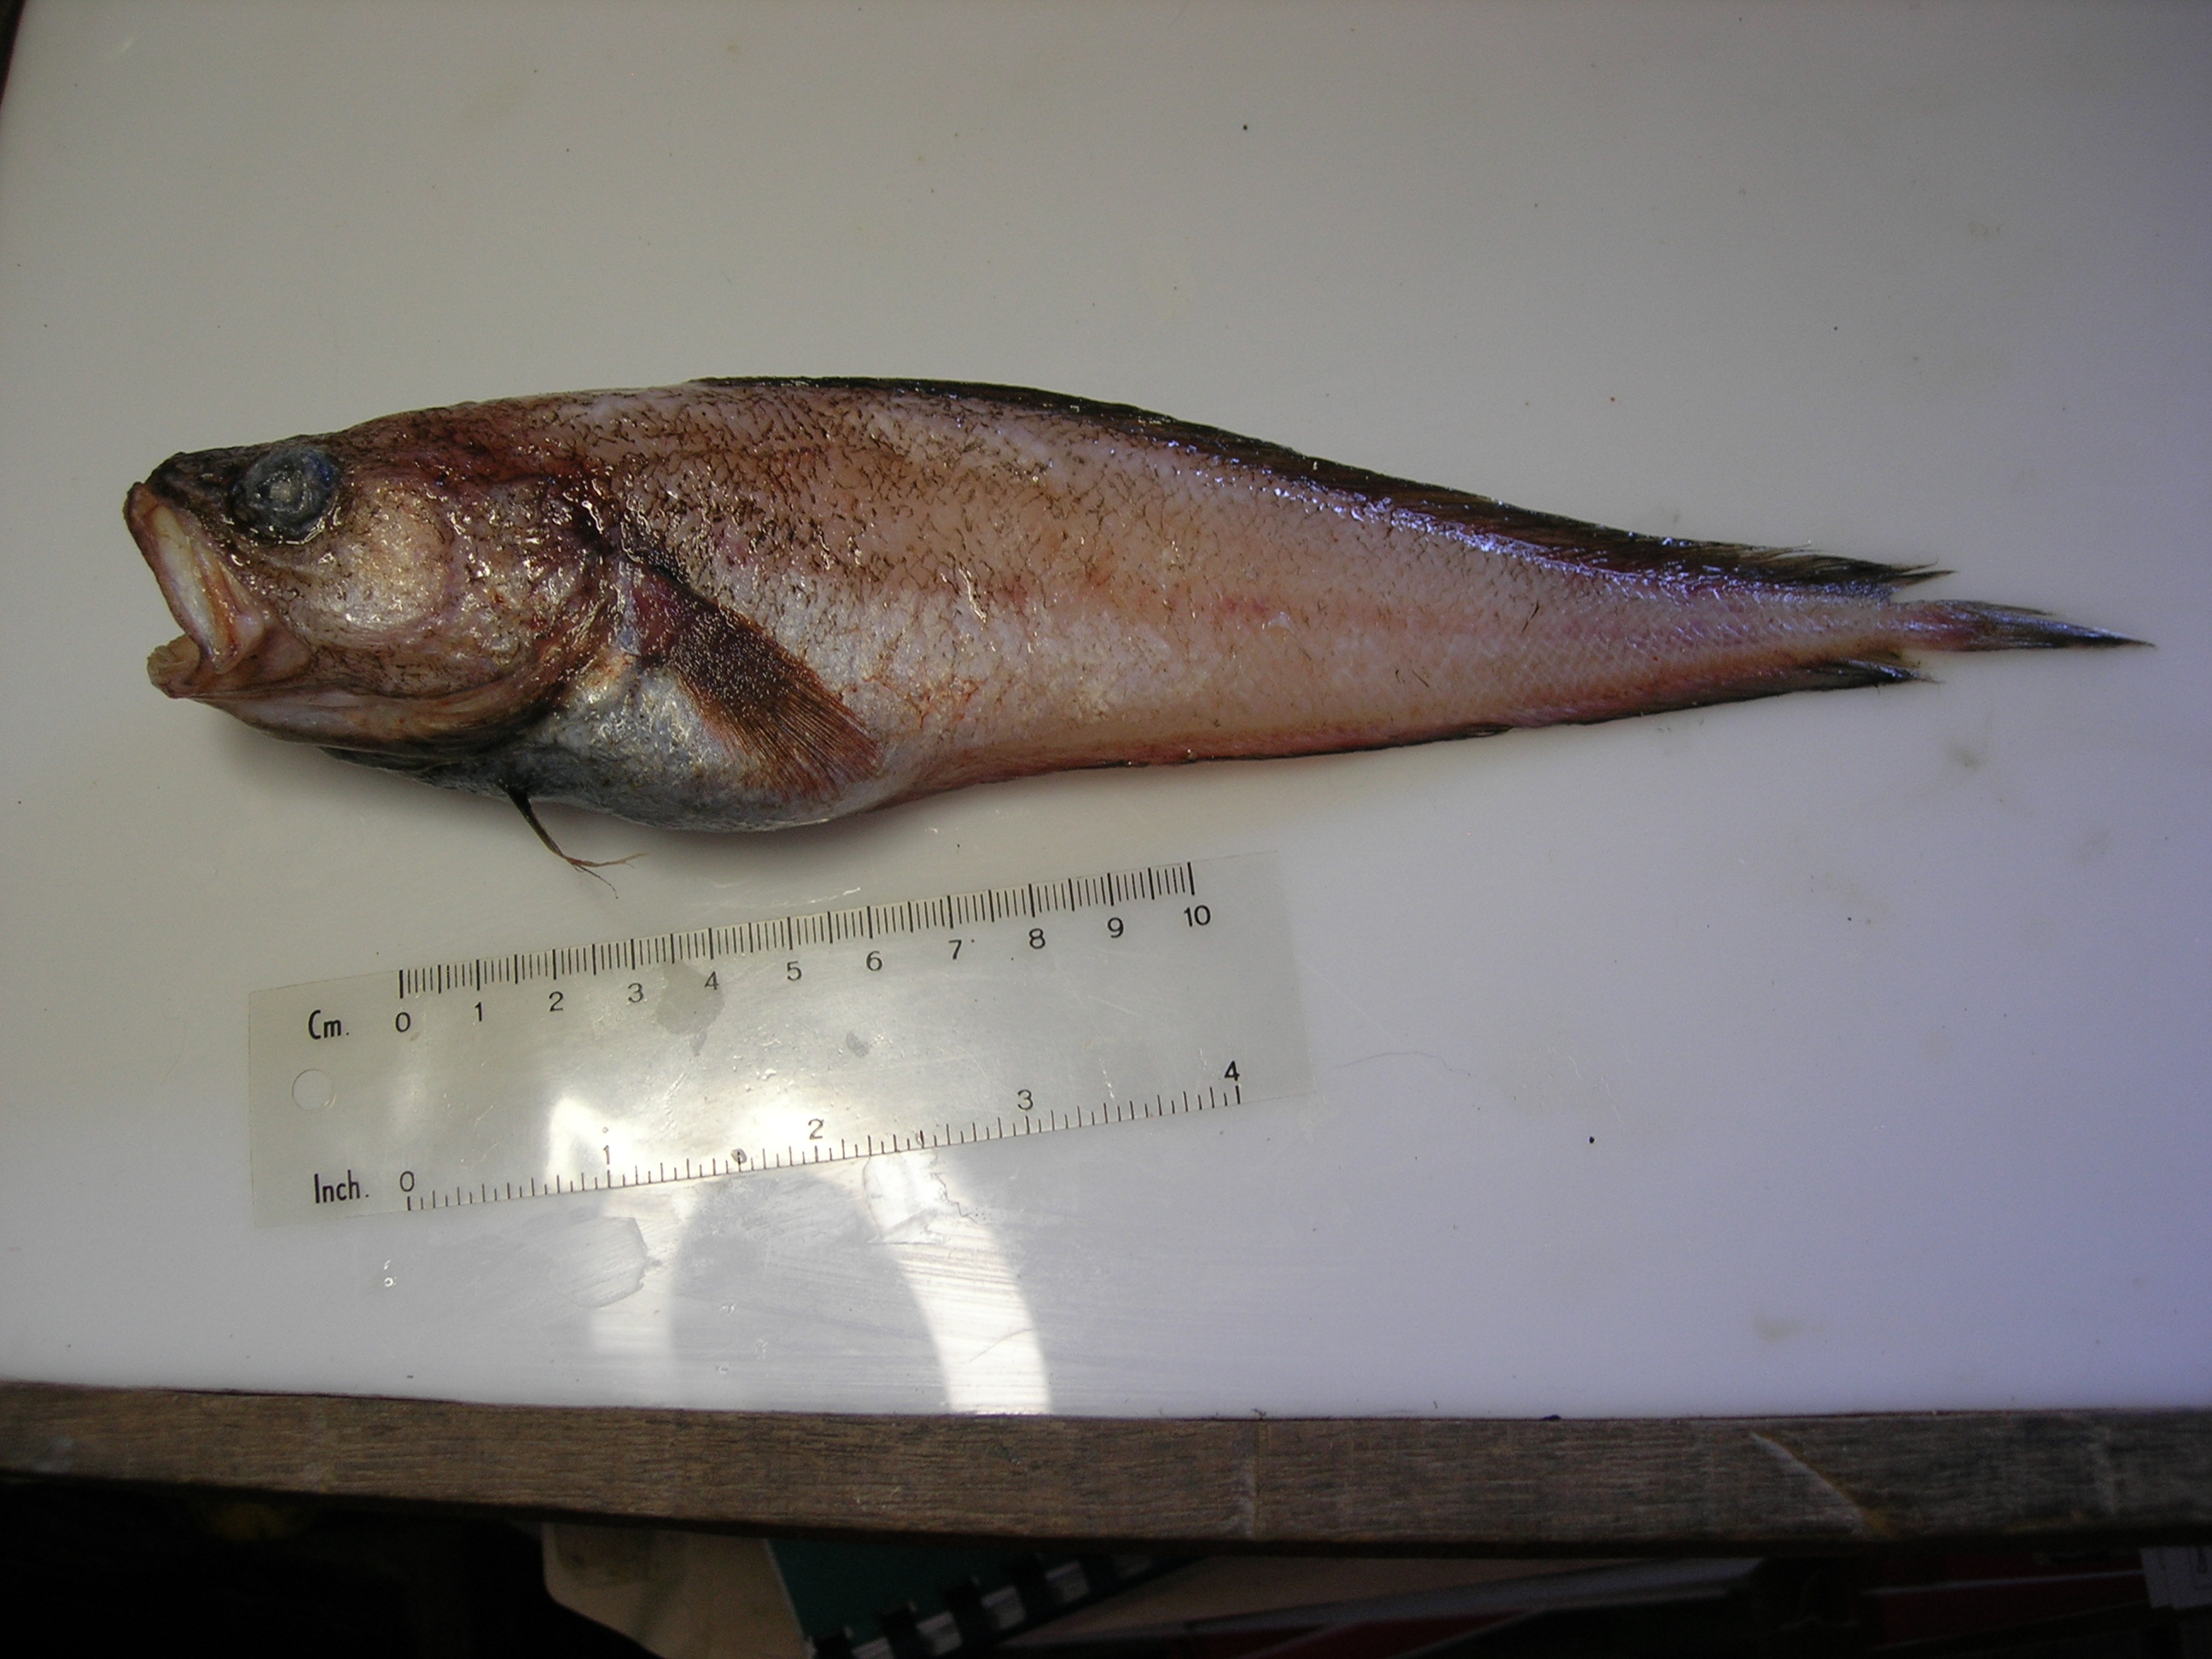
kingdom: Animalia
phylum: Chordata
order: Gadiformes
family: Moridae
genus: Physiculus
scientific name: Physiculus natalensis
